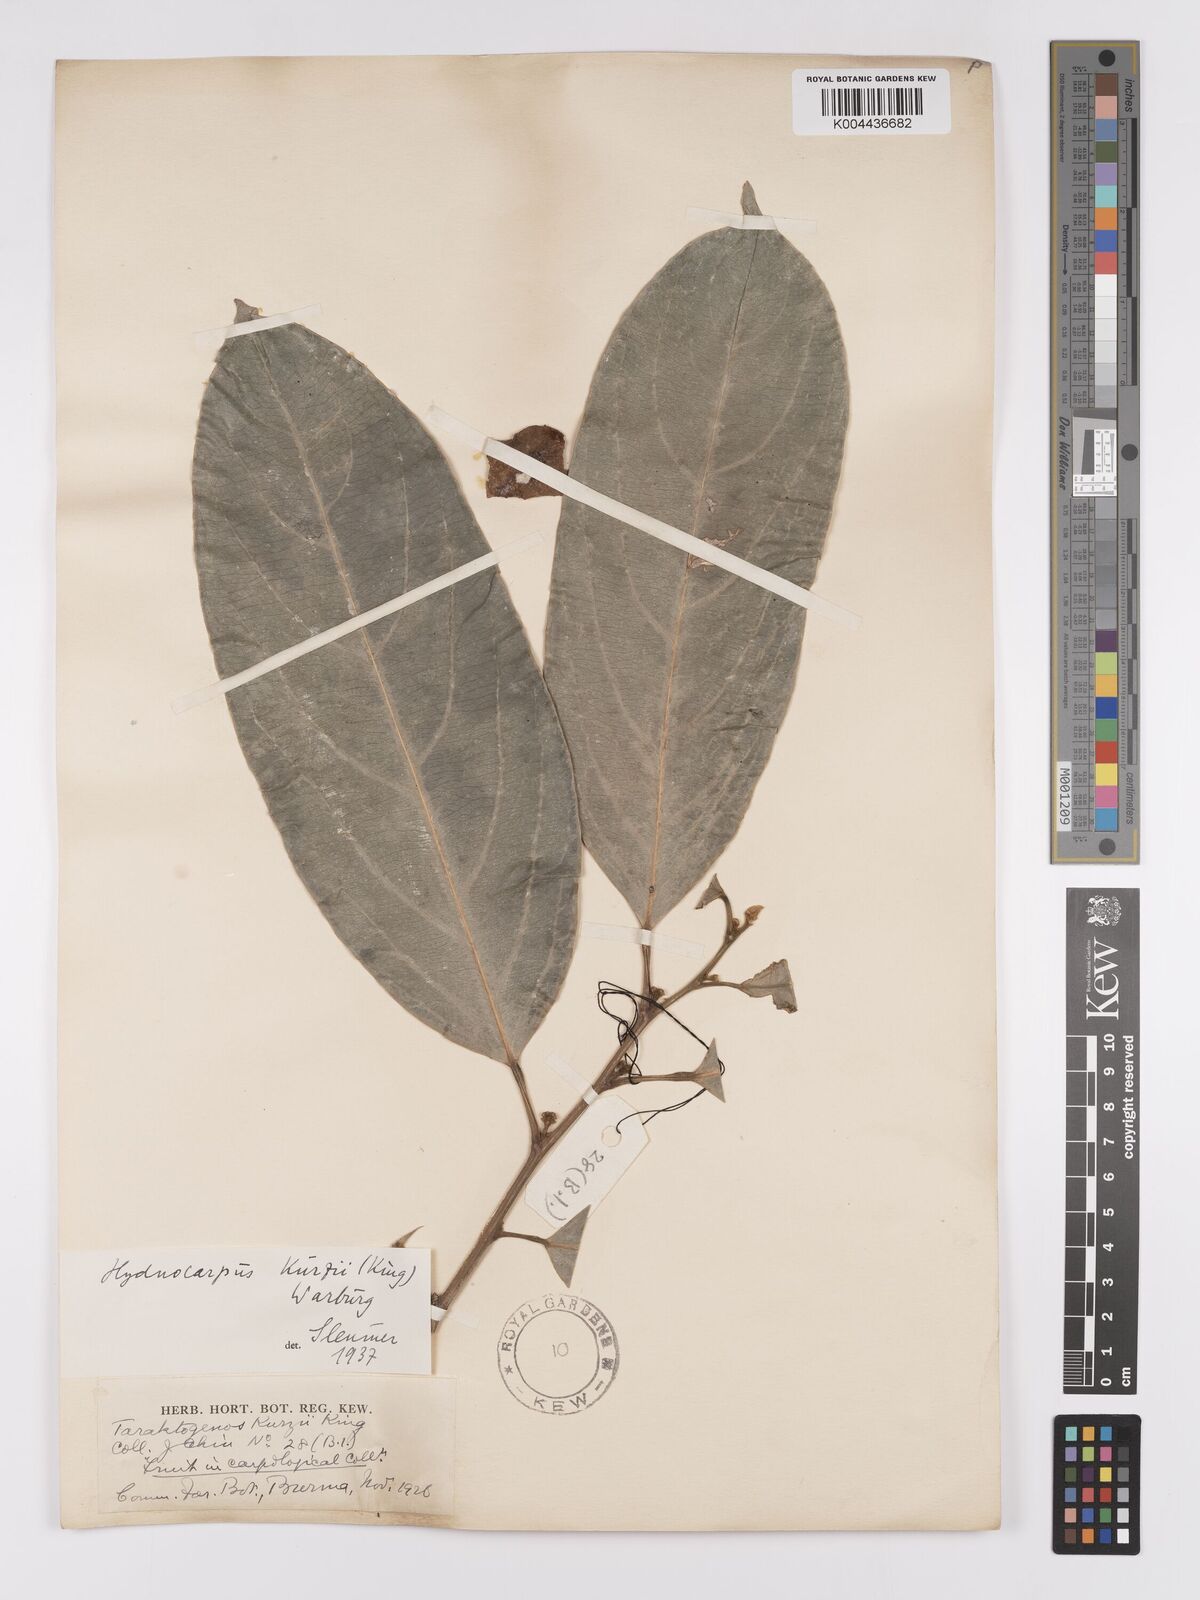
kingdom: Plantae
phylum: Tracheophyta
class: Magnoliopsida
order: Malpighiales
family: Achariaceae
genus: Hydnocarpus
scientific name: Hydnocarpus kurzii
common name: Chaulmoogra
